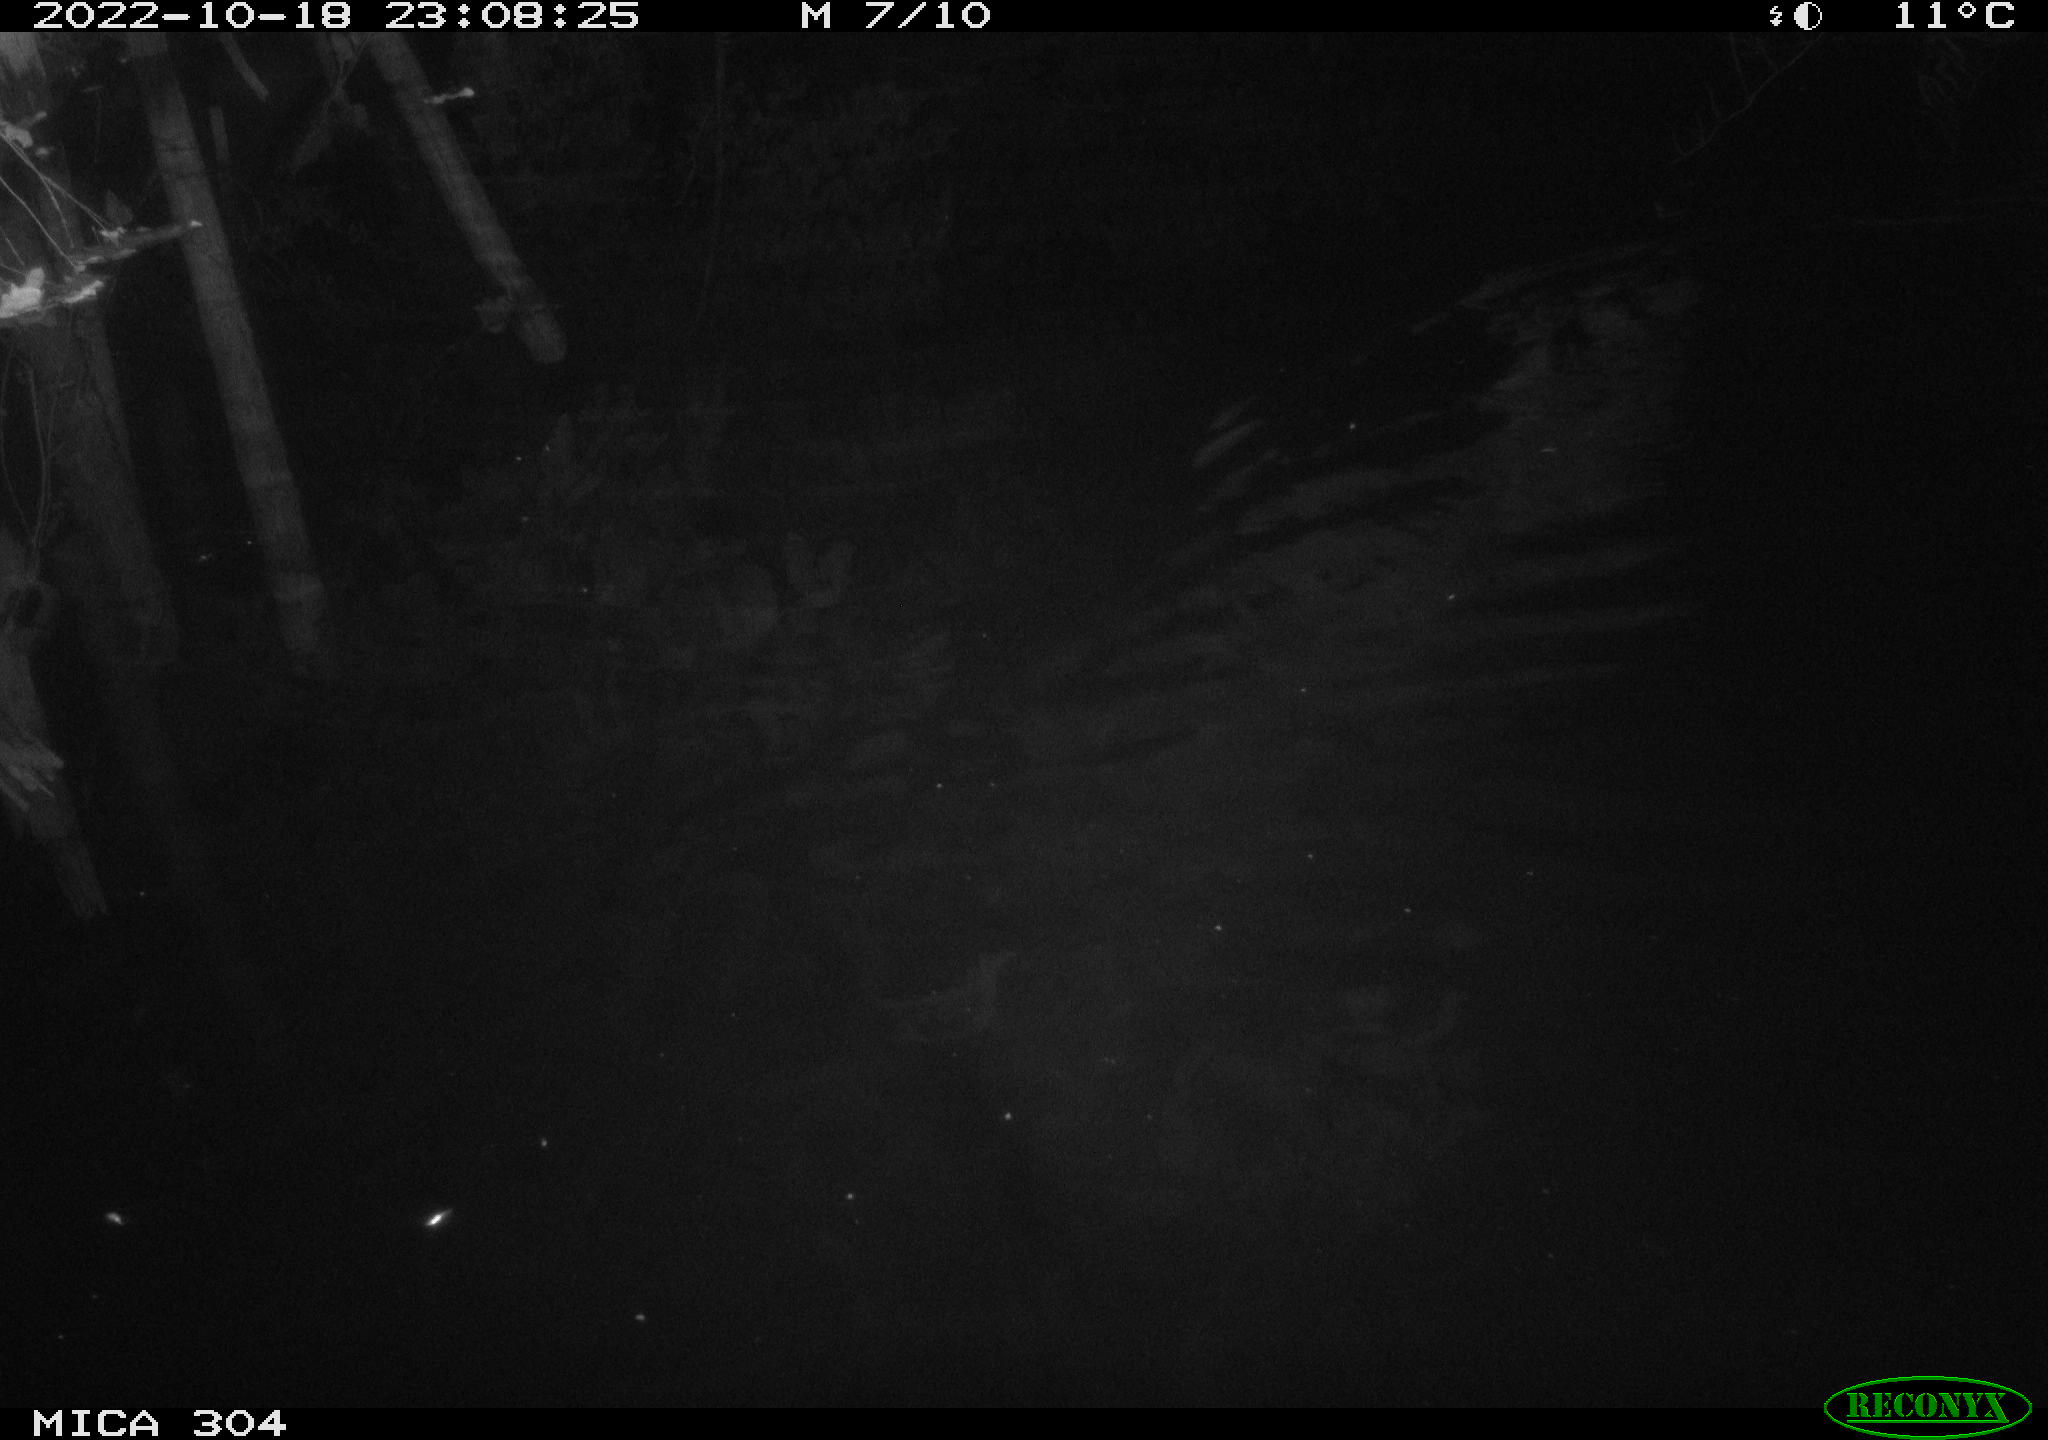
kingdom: Animalia
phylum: Chordata
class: Mammalia
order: Rodentia
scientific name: Rodentia
